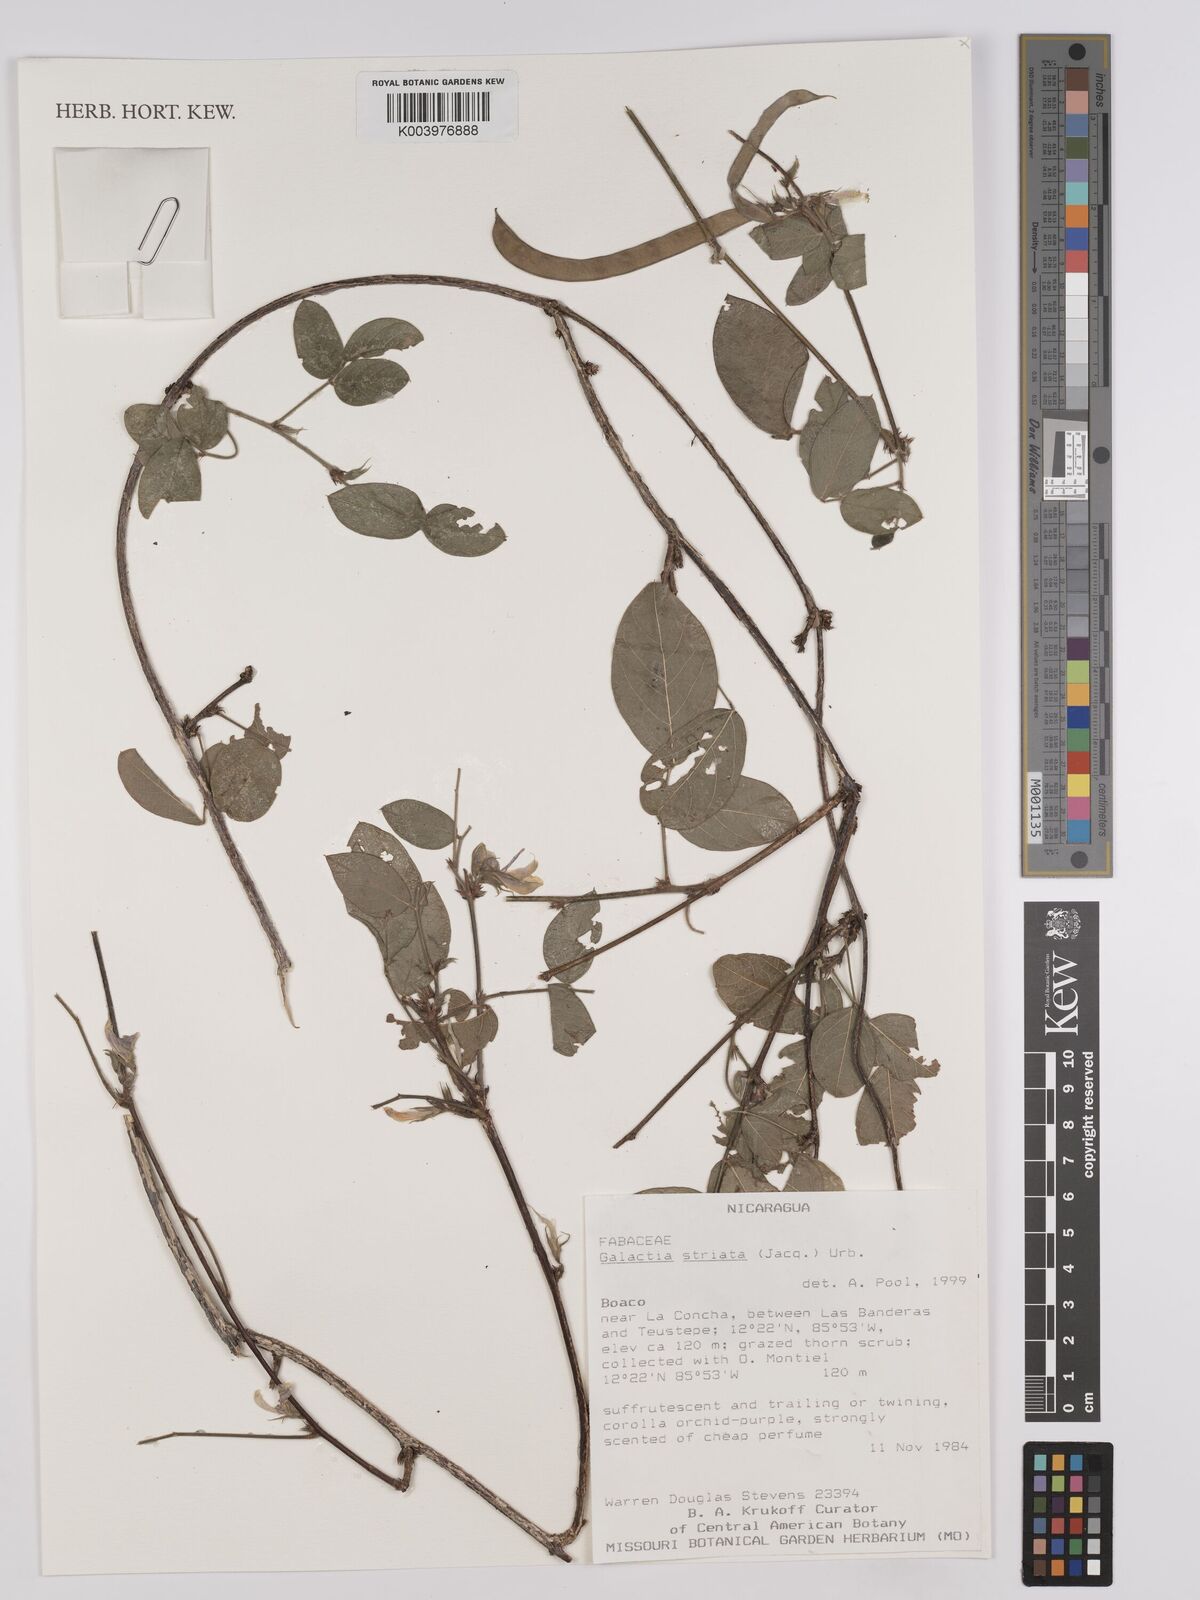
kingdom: Plantae
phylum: Tracheophyta
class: Magnoliopsida
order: Fabales
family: Fabaceae
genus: Galactia
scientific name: Galactia striata
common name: Florida hammock milkpea
